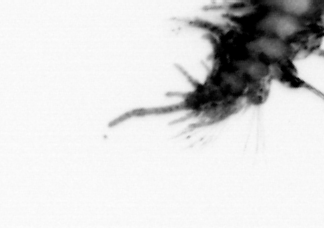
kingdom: Animalia
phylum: Annelida
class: Polychaeta
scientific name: Polychaeta
